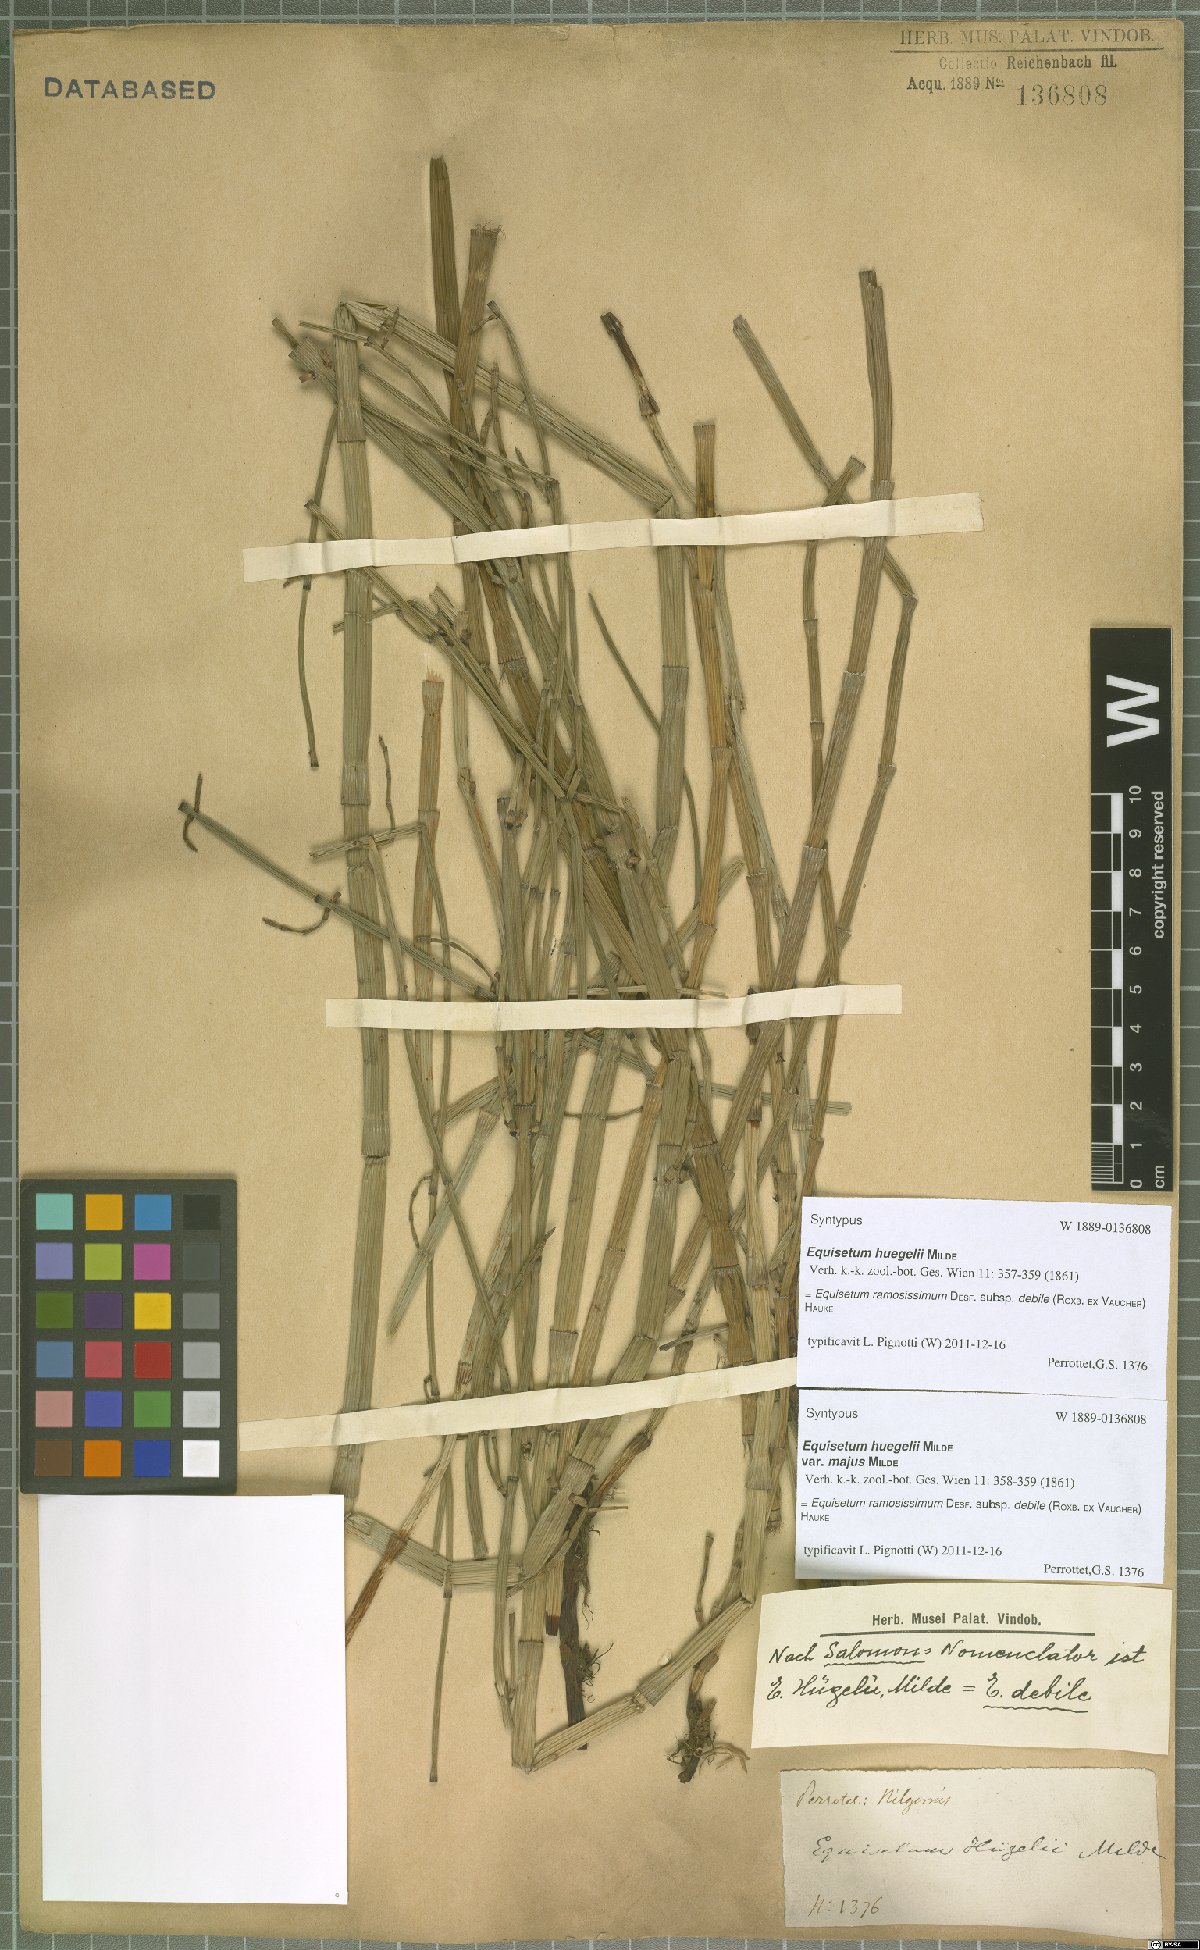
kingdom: Plantae
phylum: Tracheophyta
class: Polypodiopsida
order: Equisetales
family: Equisetaceae
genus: Equisetum
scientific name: Equisetum ramosissimum
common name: Branched horsetail
